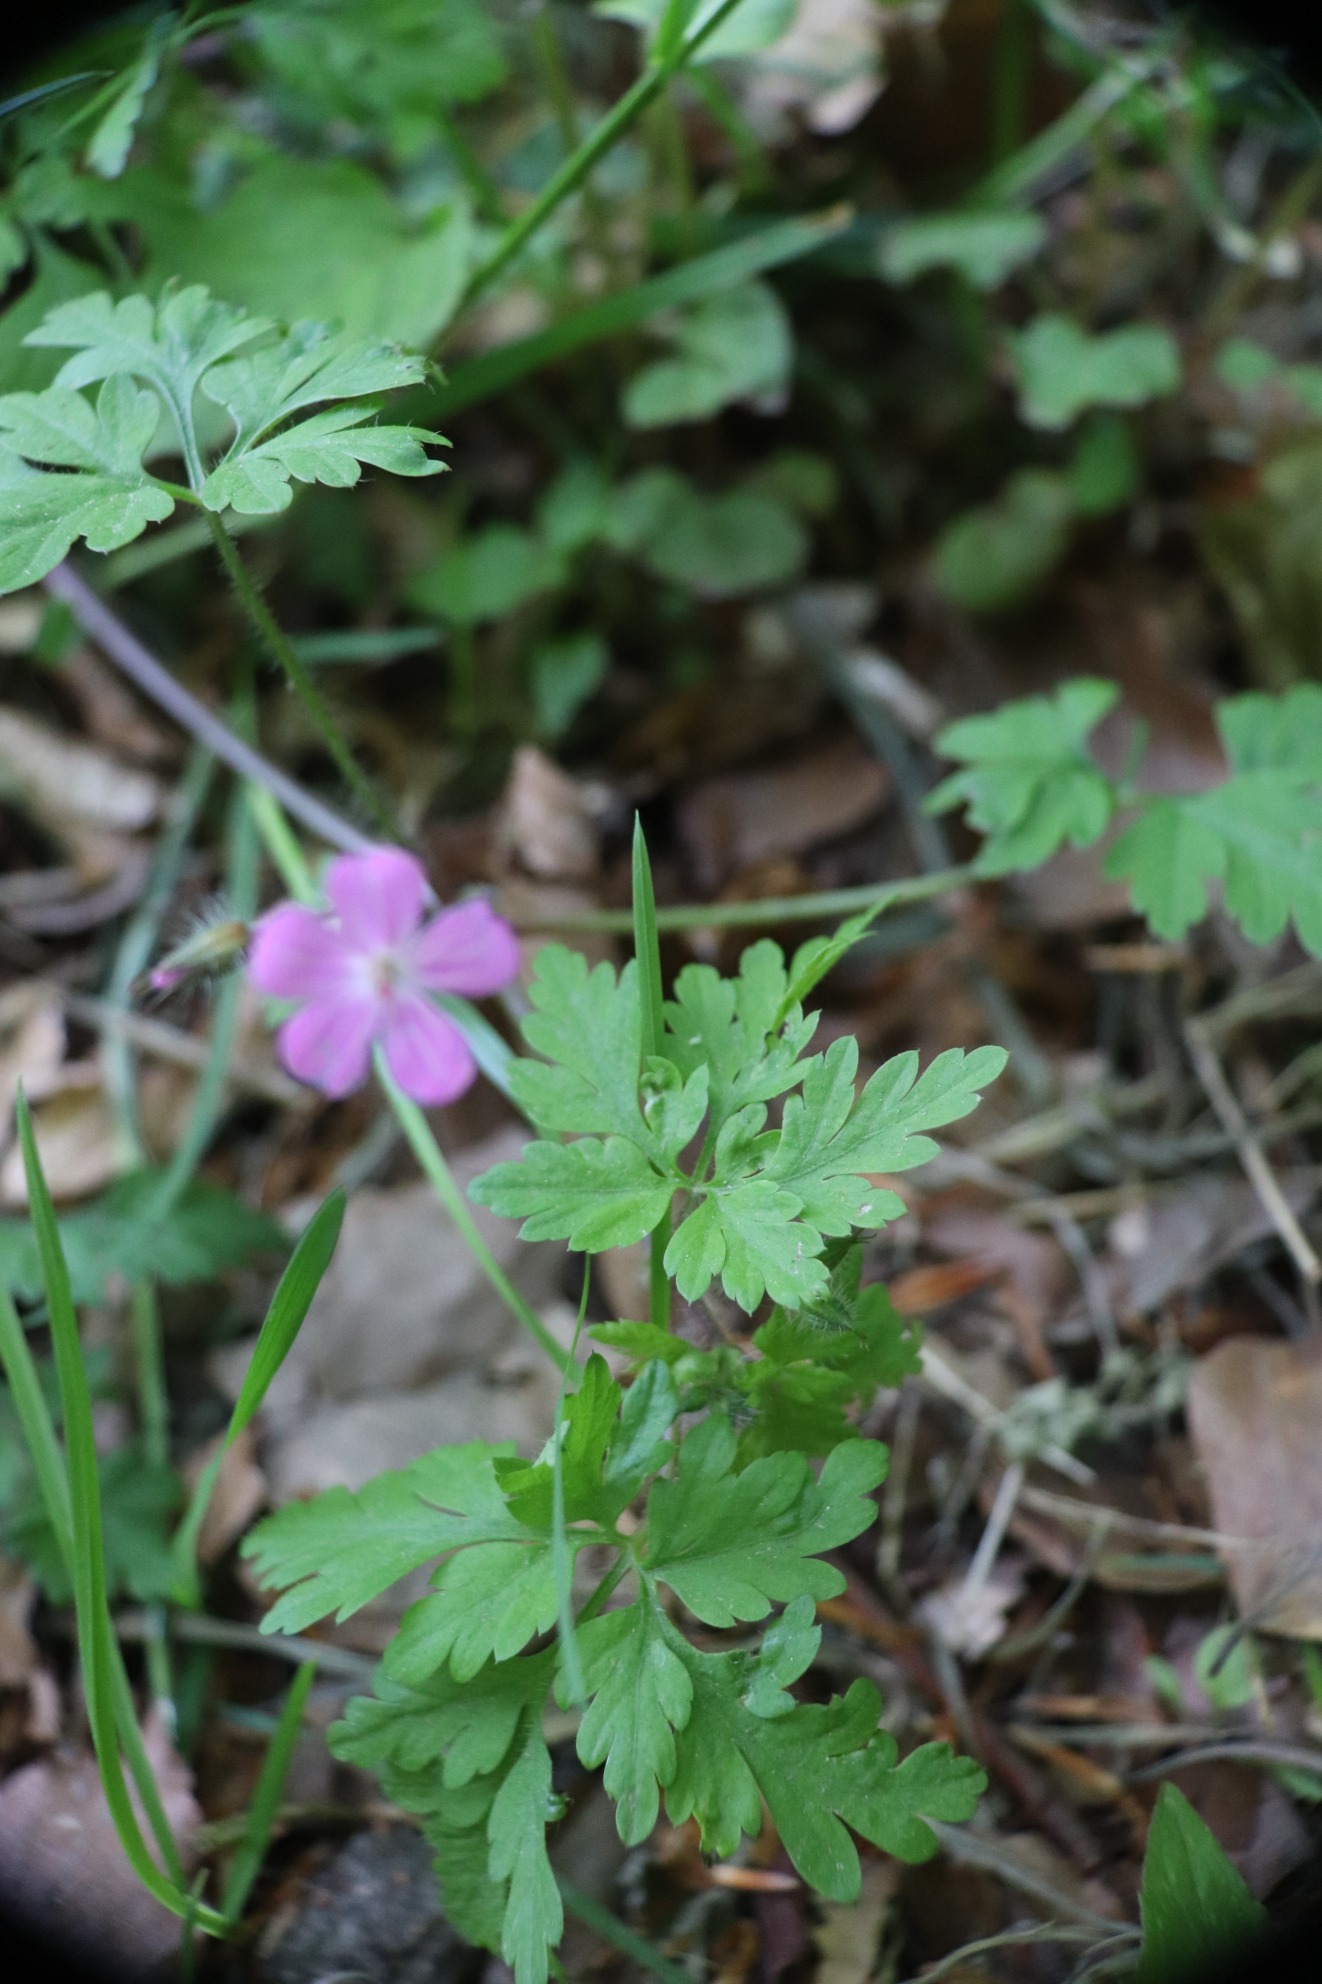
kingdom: Plantae
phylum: Tracheophyta
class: Magnoliopsida
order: Geraniales
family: Geraniaceae
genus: Geranium
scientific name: Geranium robertianum
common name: Stinkende storkenæb
